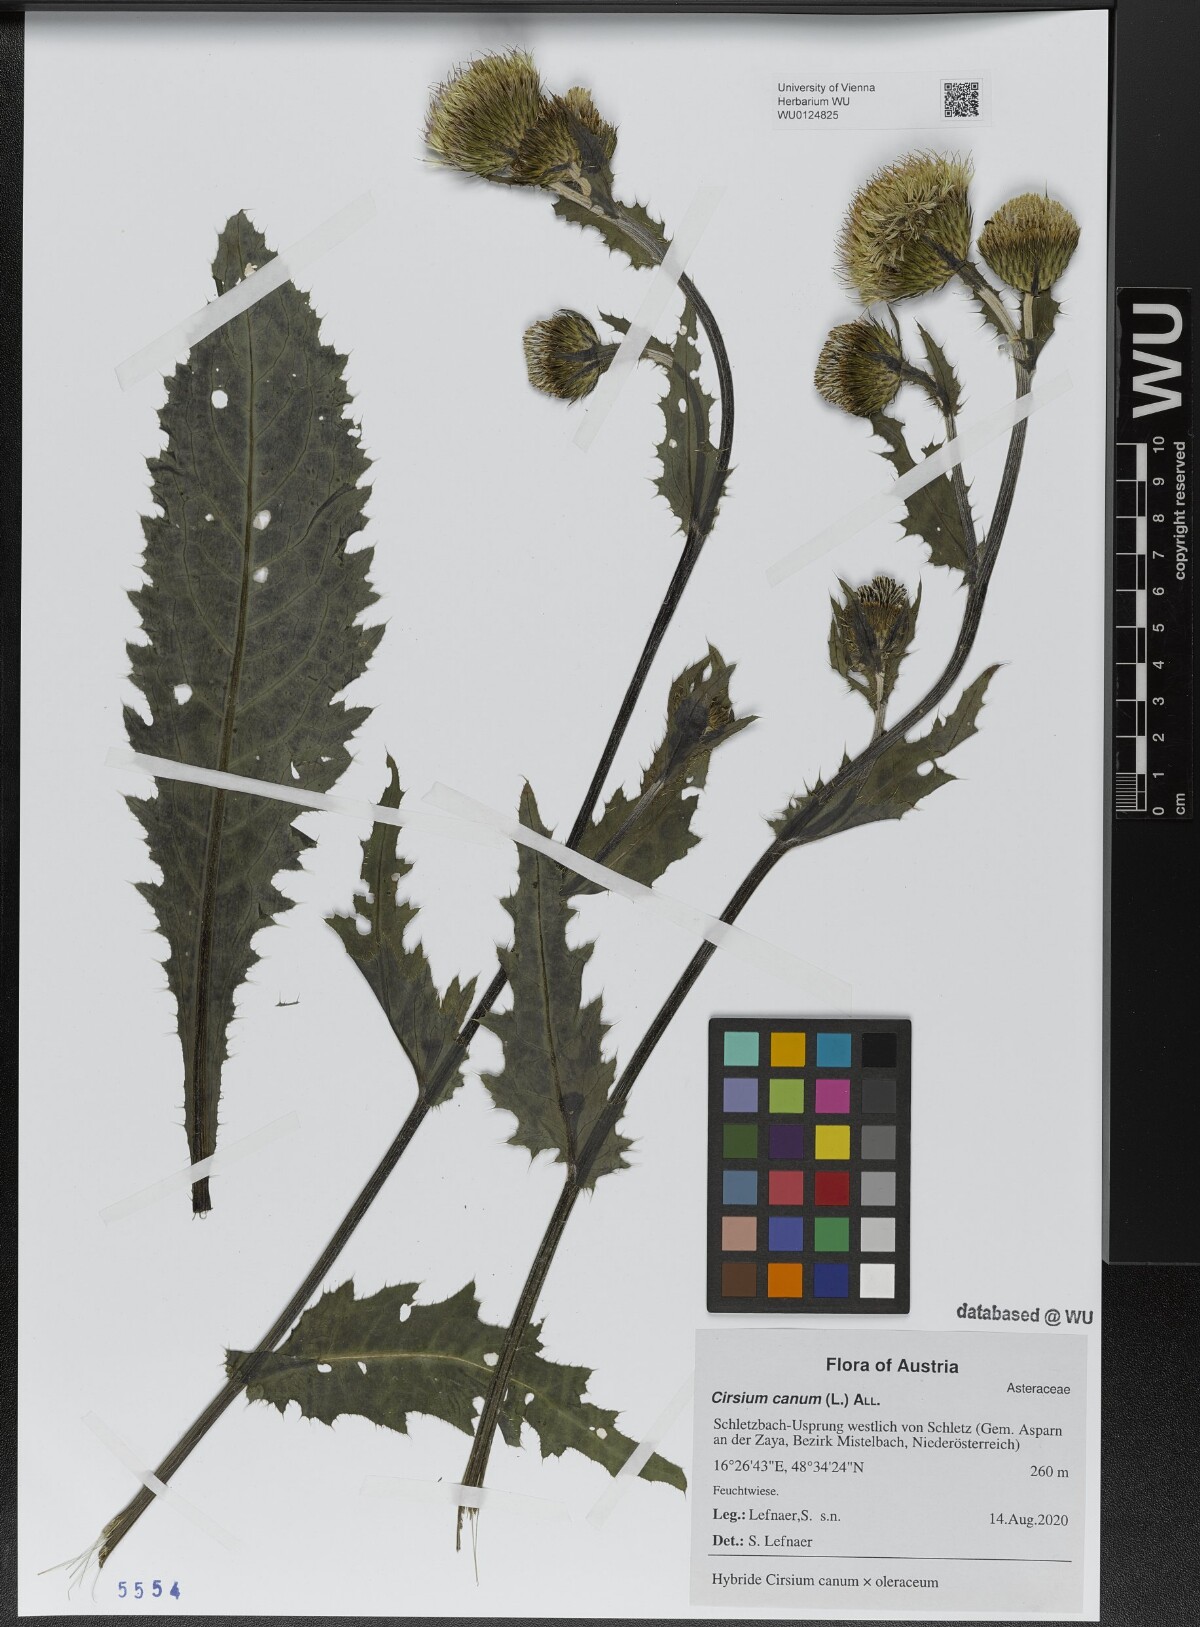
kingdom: Plantae
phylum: Tracheophyta
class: Magnoliopsida
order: Asterales
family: Asteraceae
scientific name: Asteraceae
